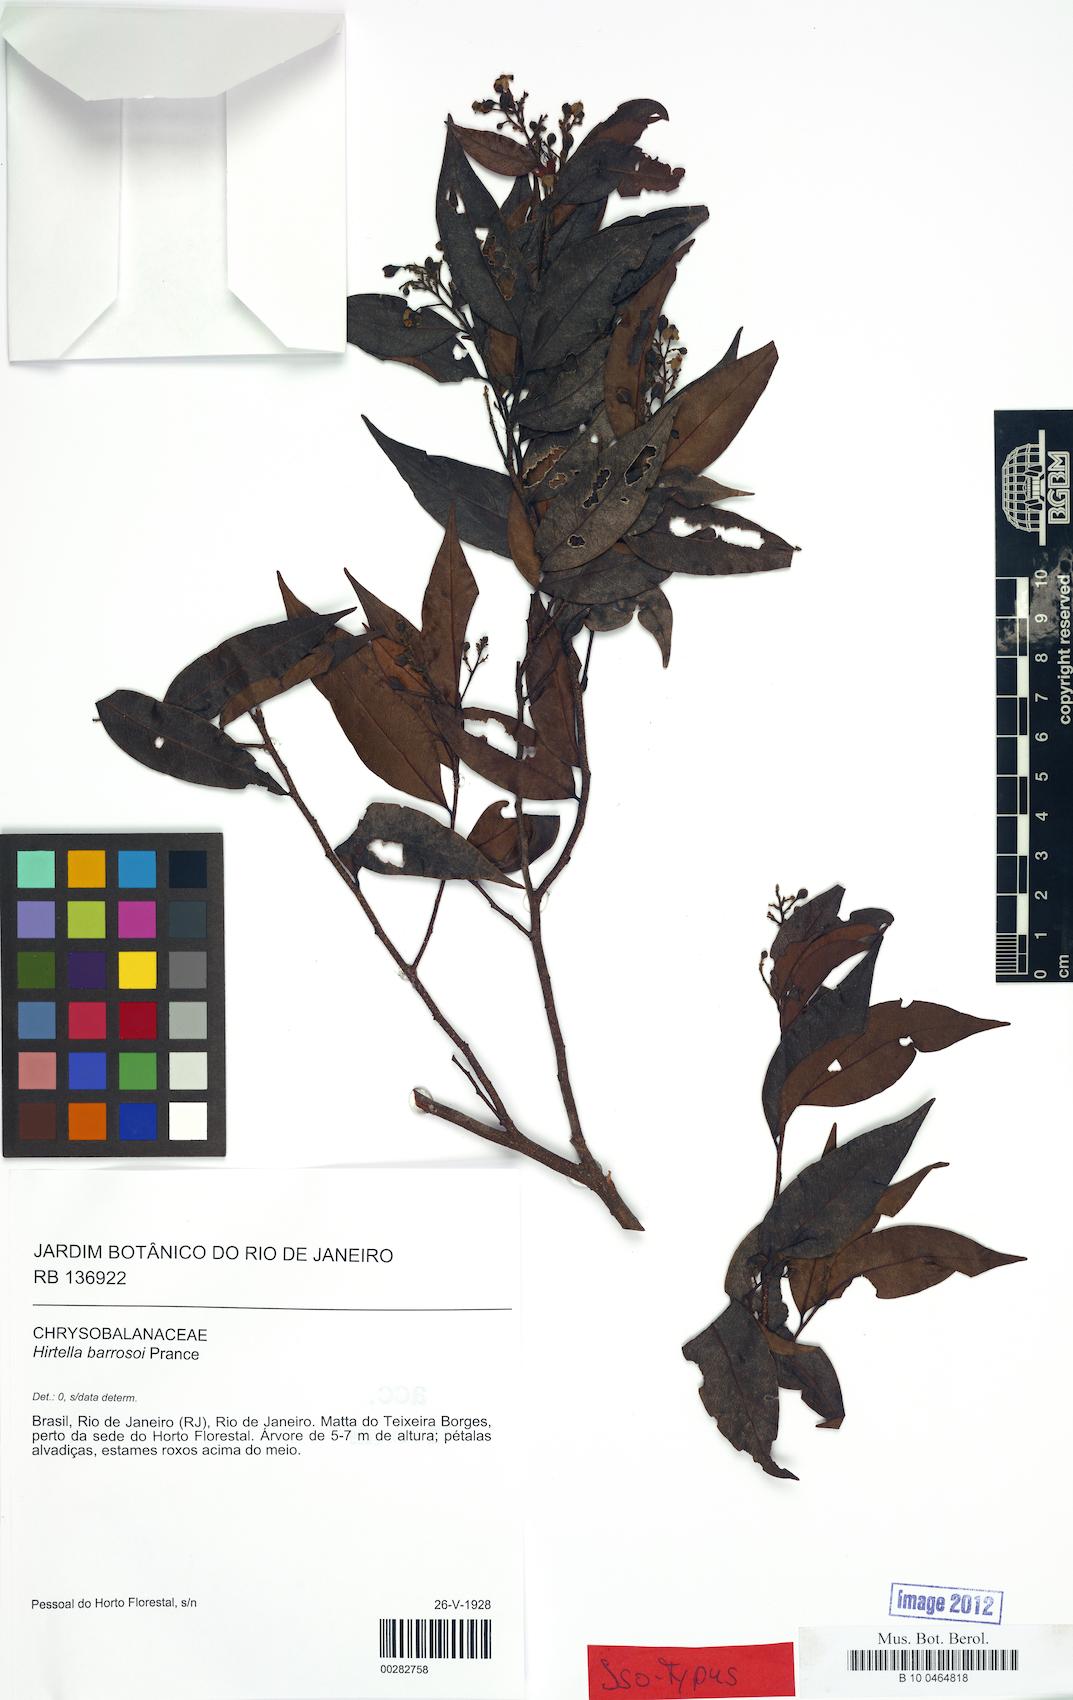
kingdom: Plantae
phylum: Tracheophyta
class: Magnoliopsida
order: Malpighiales
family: Chrysobalanaceae
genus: Hirtella
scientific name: Hirtella barrosoi
